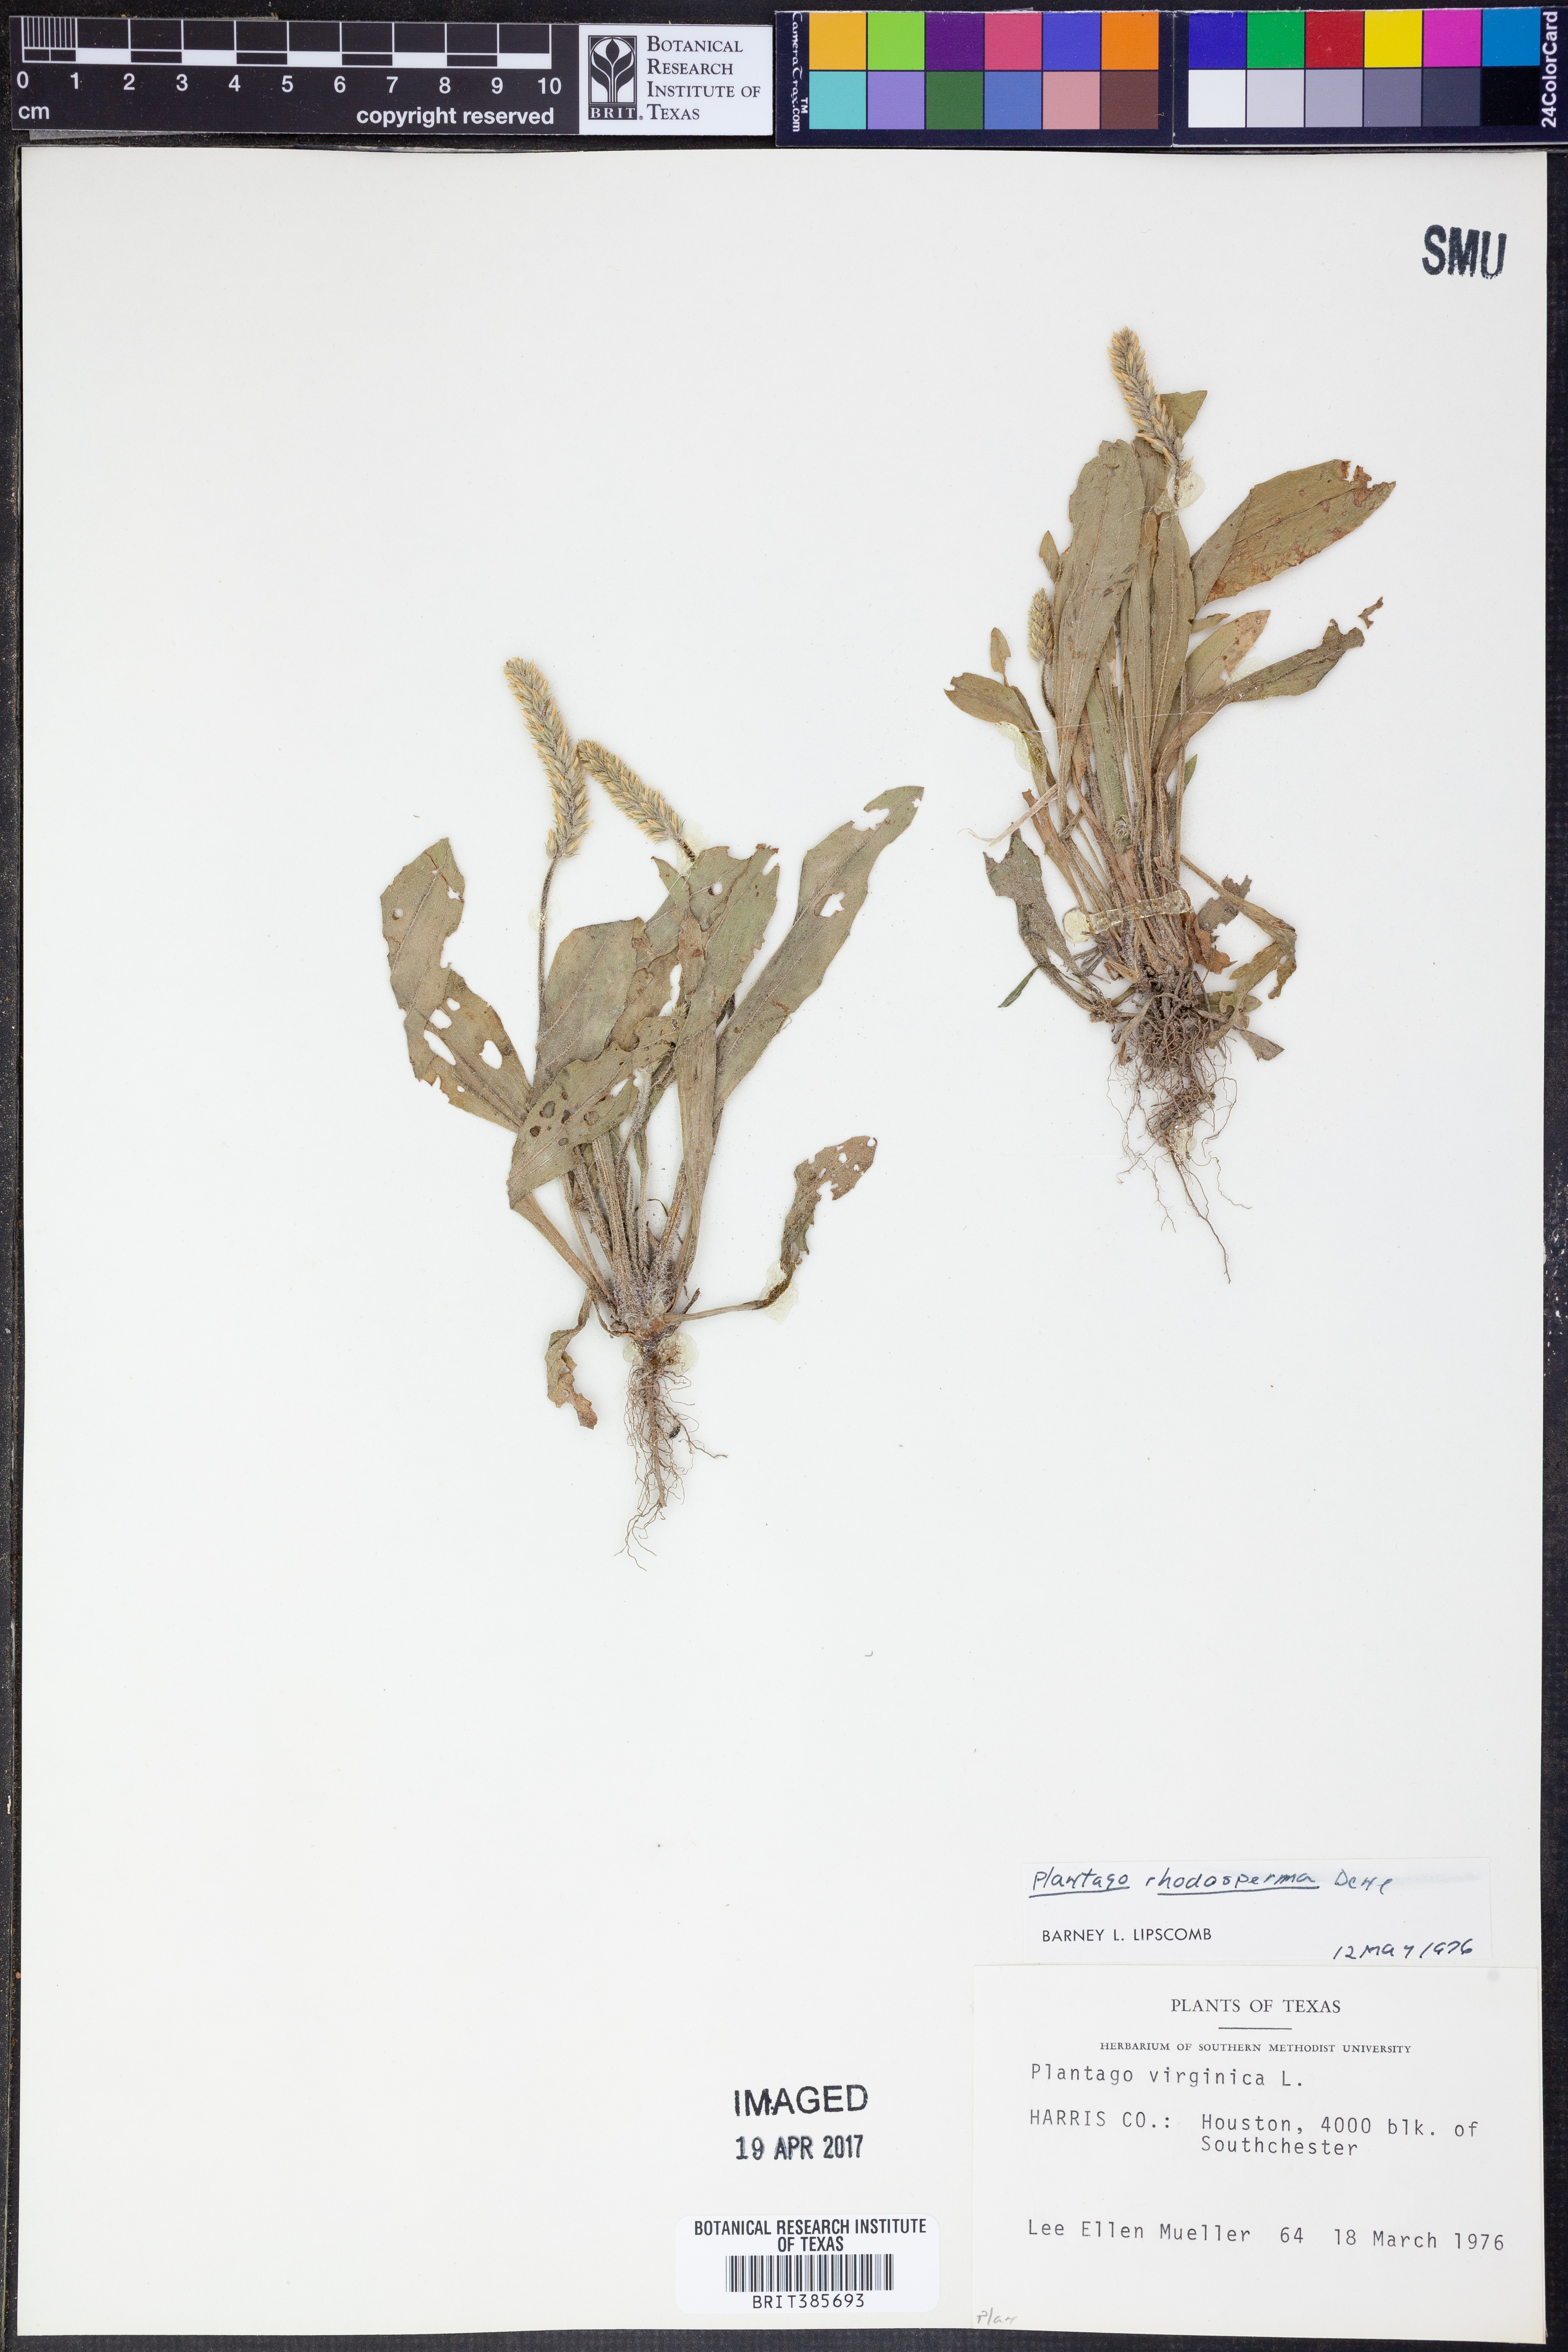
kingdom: Plantae
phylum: Tracheophyta
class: Magnoliopsida
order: Lamiales
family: Plantaginaceae
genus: Plantago
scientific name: Plantago rhodosperma
